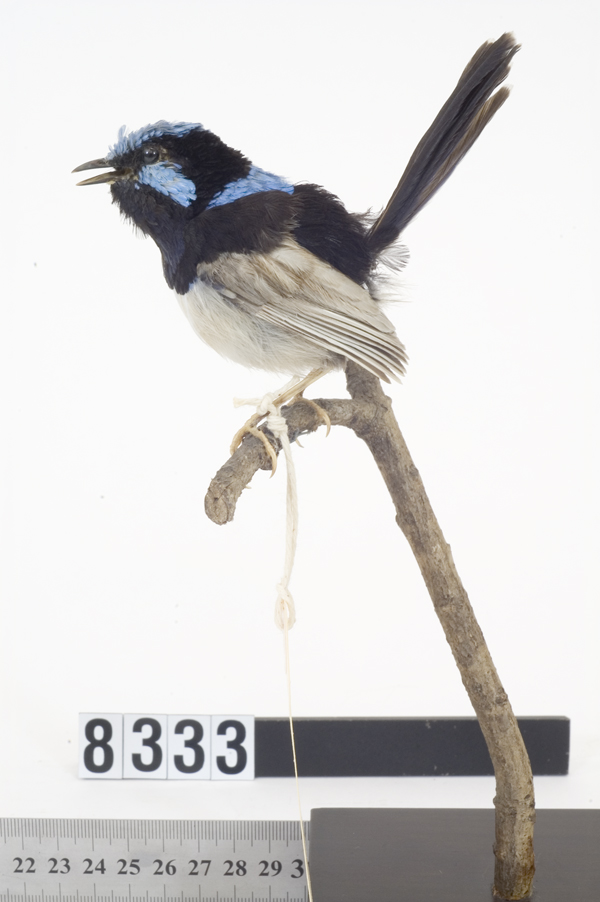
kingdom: Animalia
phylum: Chordata
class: Aves
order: Passeriformes
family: Maluridae
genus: Malurus
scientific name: Malurus cyaneus
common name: Superb fairywren
